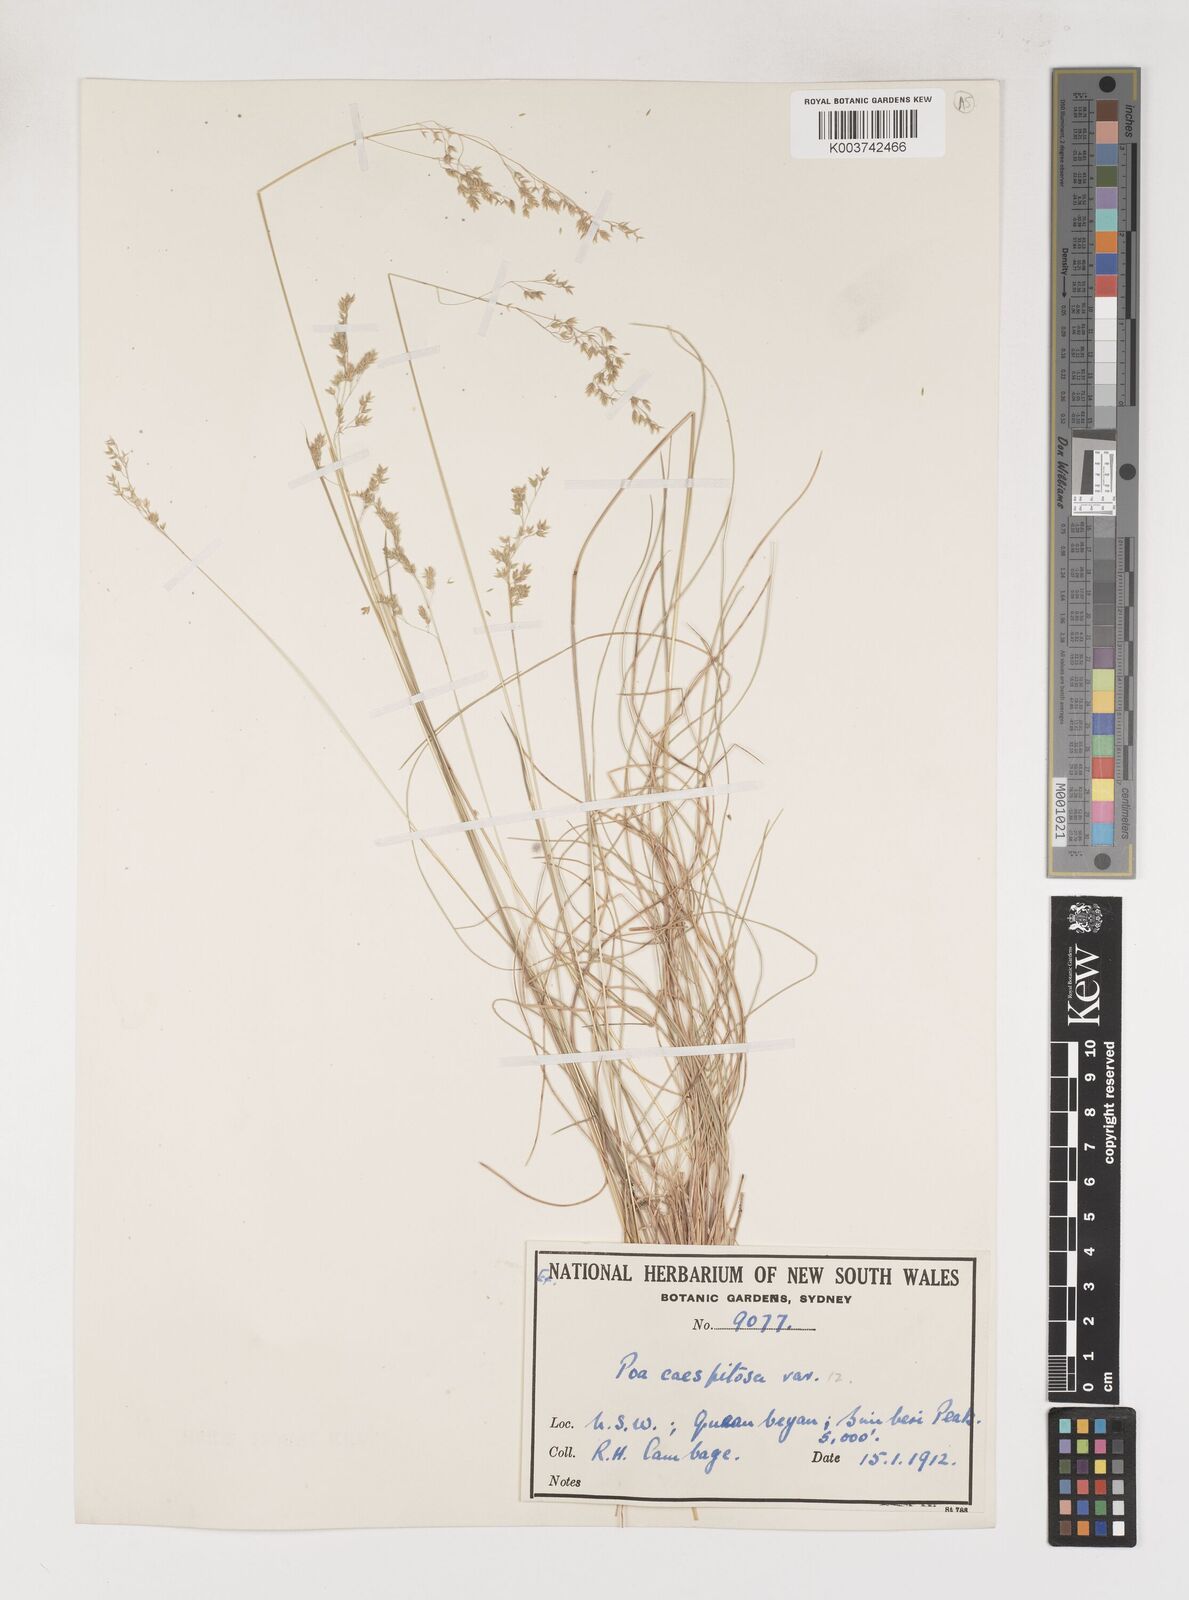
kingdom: Plantae
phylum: Tracheophyta
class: Liliopsida
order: Poales
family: Poaceae
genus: Poa
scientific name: Poa
